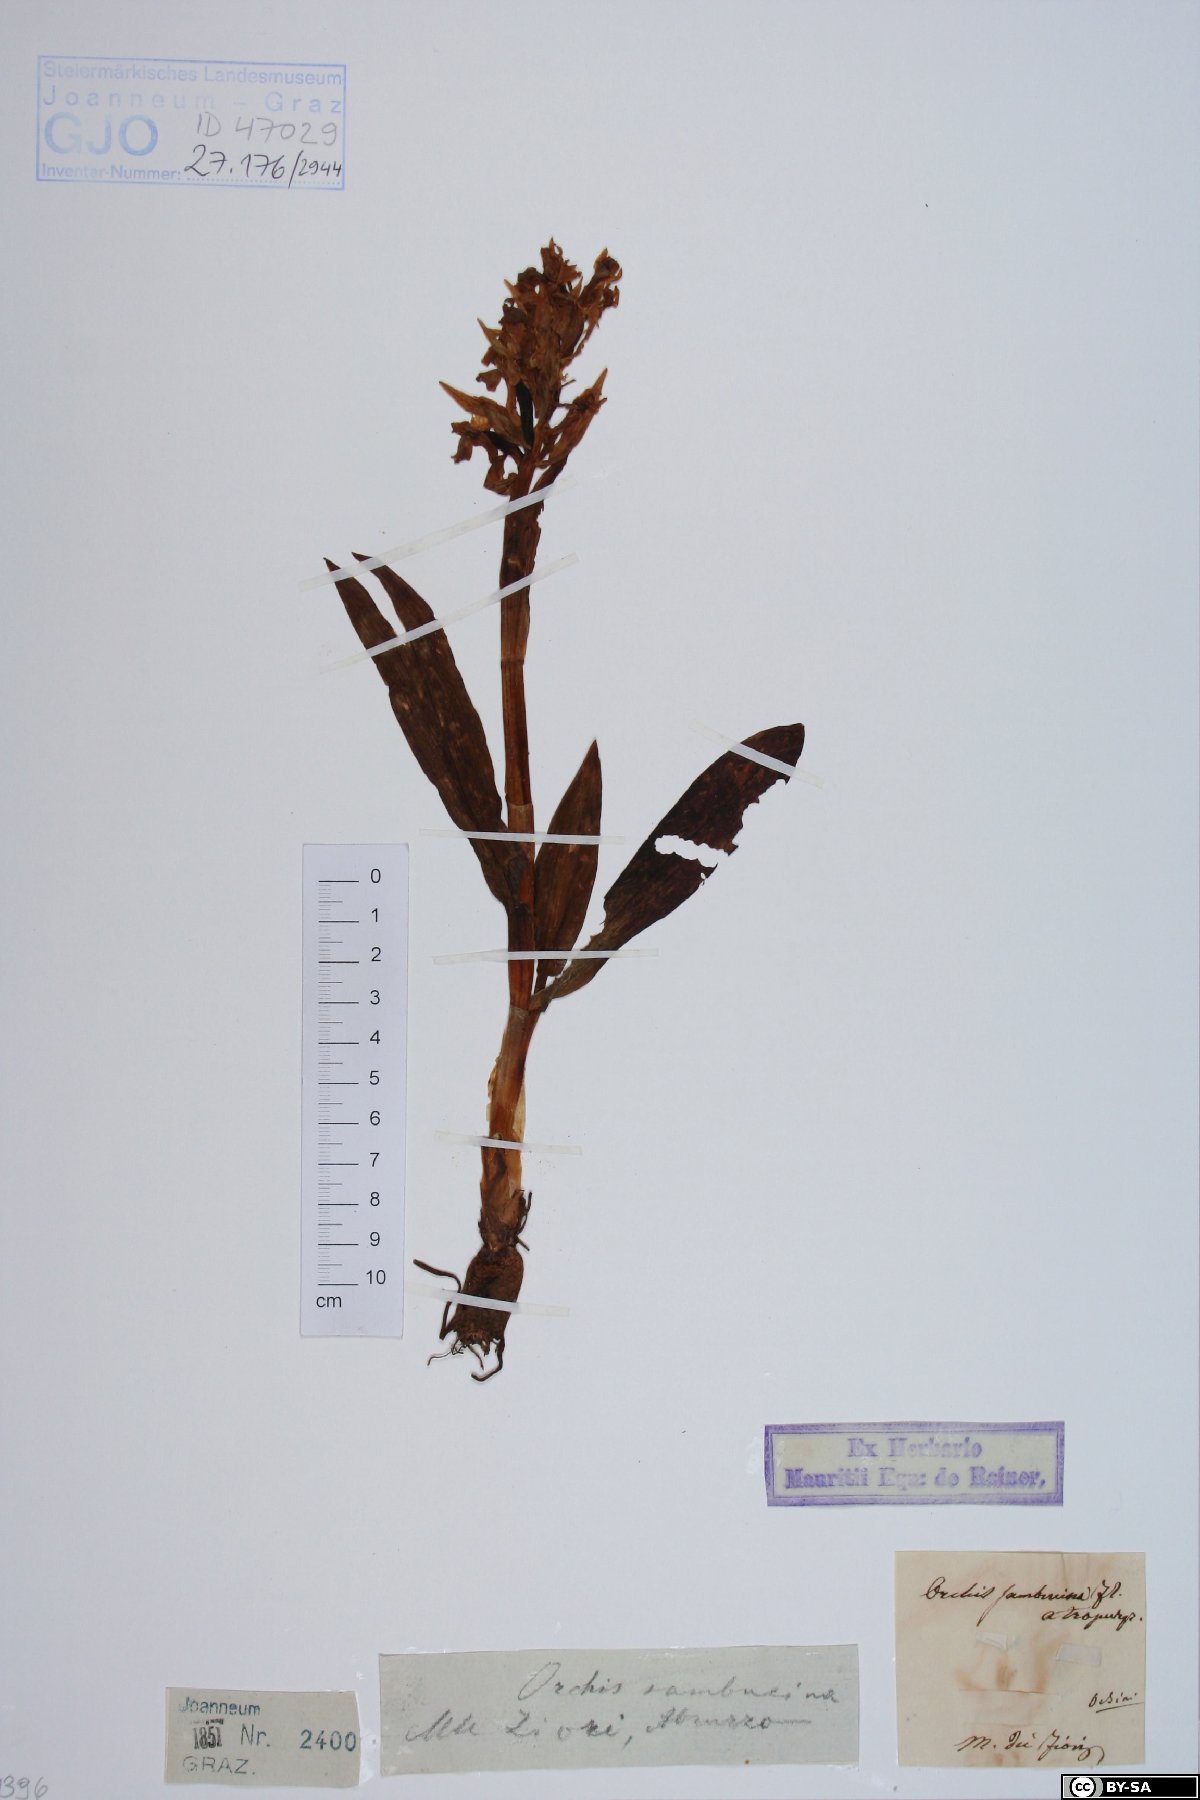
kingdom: Plantae
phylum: Tracheophyta
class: Liliopsida
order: Asparagales
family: Orchidaceae
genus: Dactylorhiza
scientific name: Dactylorhiza sambucina
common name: Elder-flowered orchid
